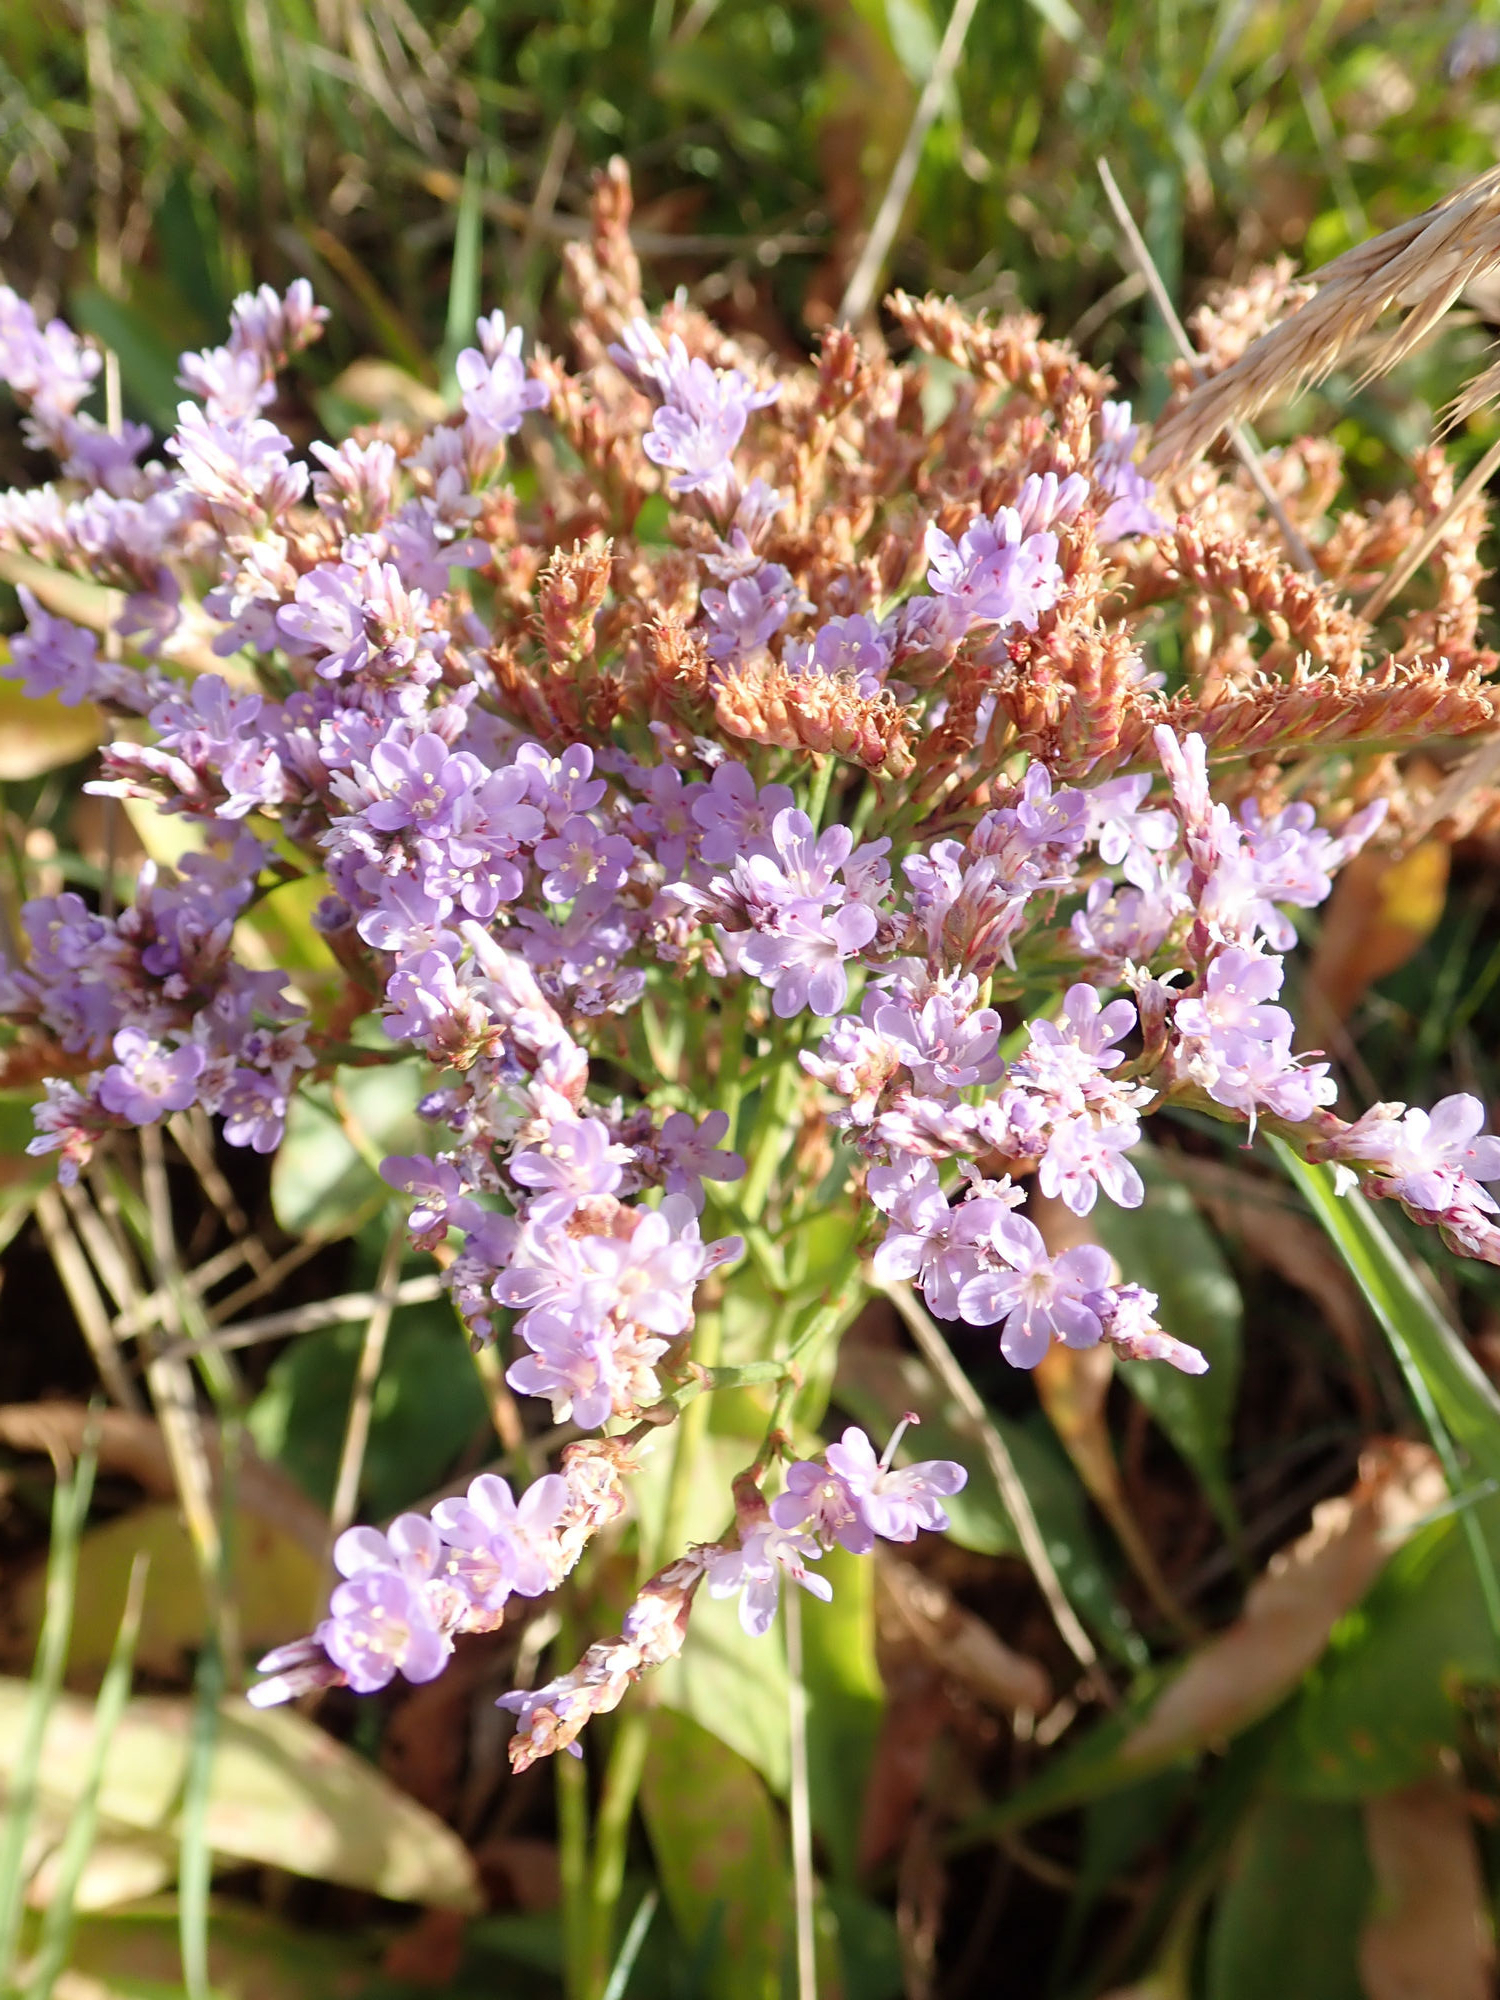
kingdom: Plantae
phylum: Tracheophyta
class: Magnoliopsida
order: Caryophyllales
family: Plumbaginaceae
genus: Limonium
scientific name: Limonium
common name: Lav hindebæger × tætblomstret hindebæger
